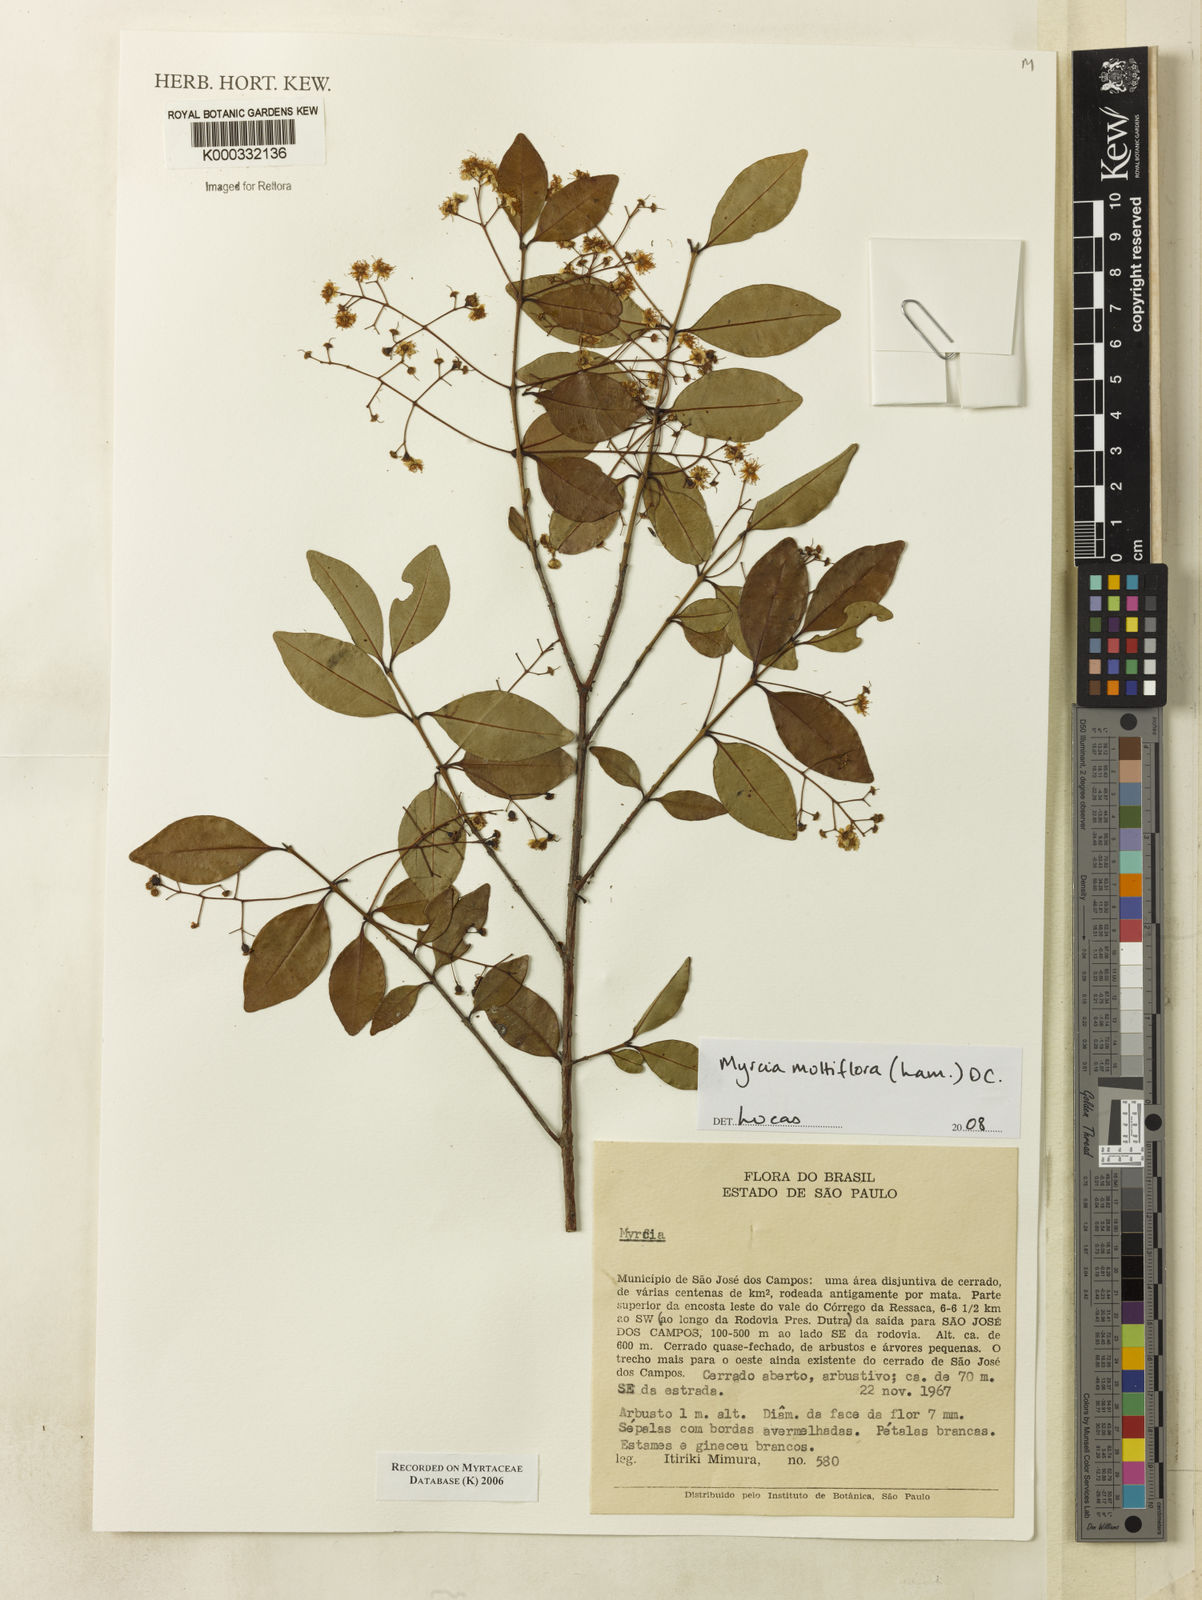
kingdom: Plantae
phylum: Tracheophyta
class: Magnoliopsida
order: Myrtales
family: Myrtaceae
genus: Myrcia
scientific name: Myrcia
